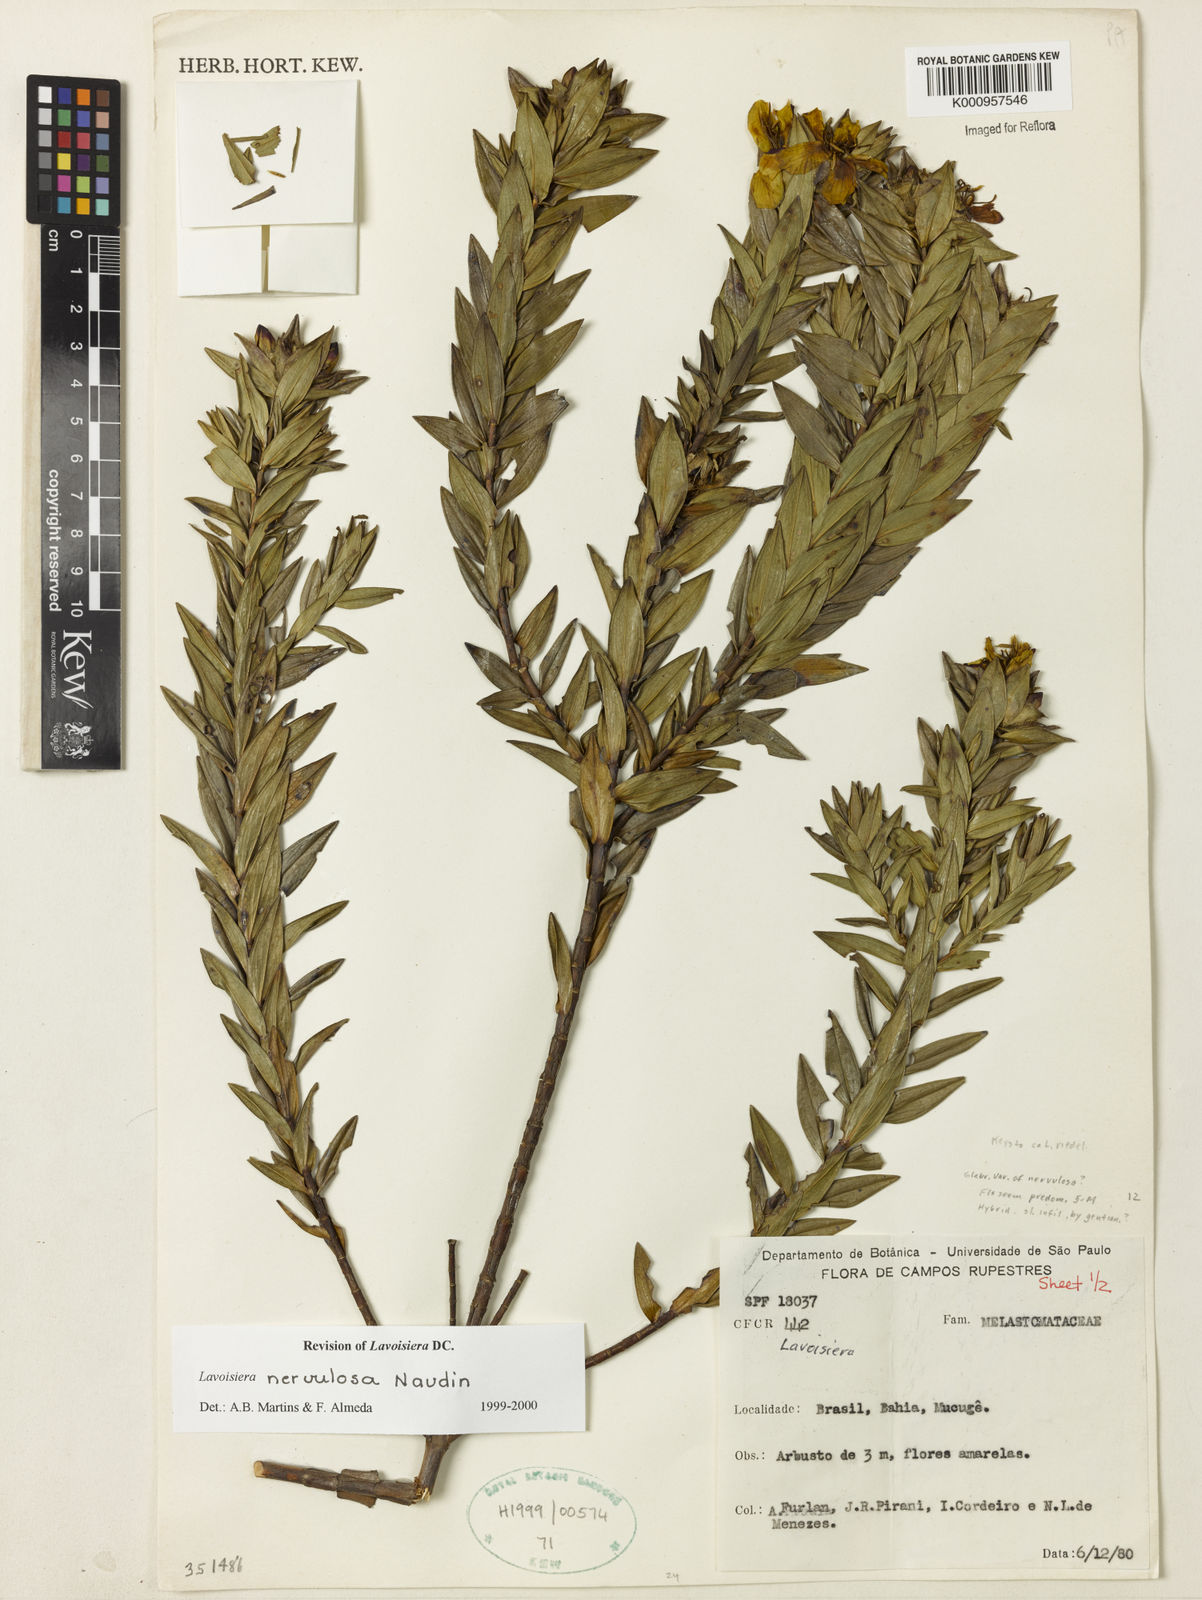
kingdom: Plantae
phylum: Tracheophyta
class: Magnoliopsida
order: Myrtales
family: Melastomataceae
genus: Microlicia
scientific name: Microlicia nervulosa
